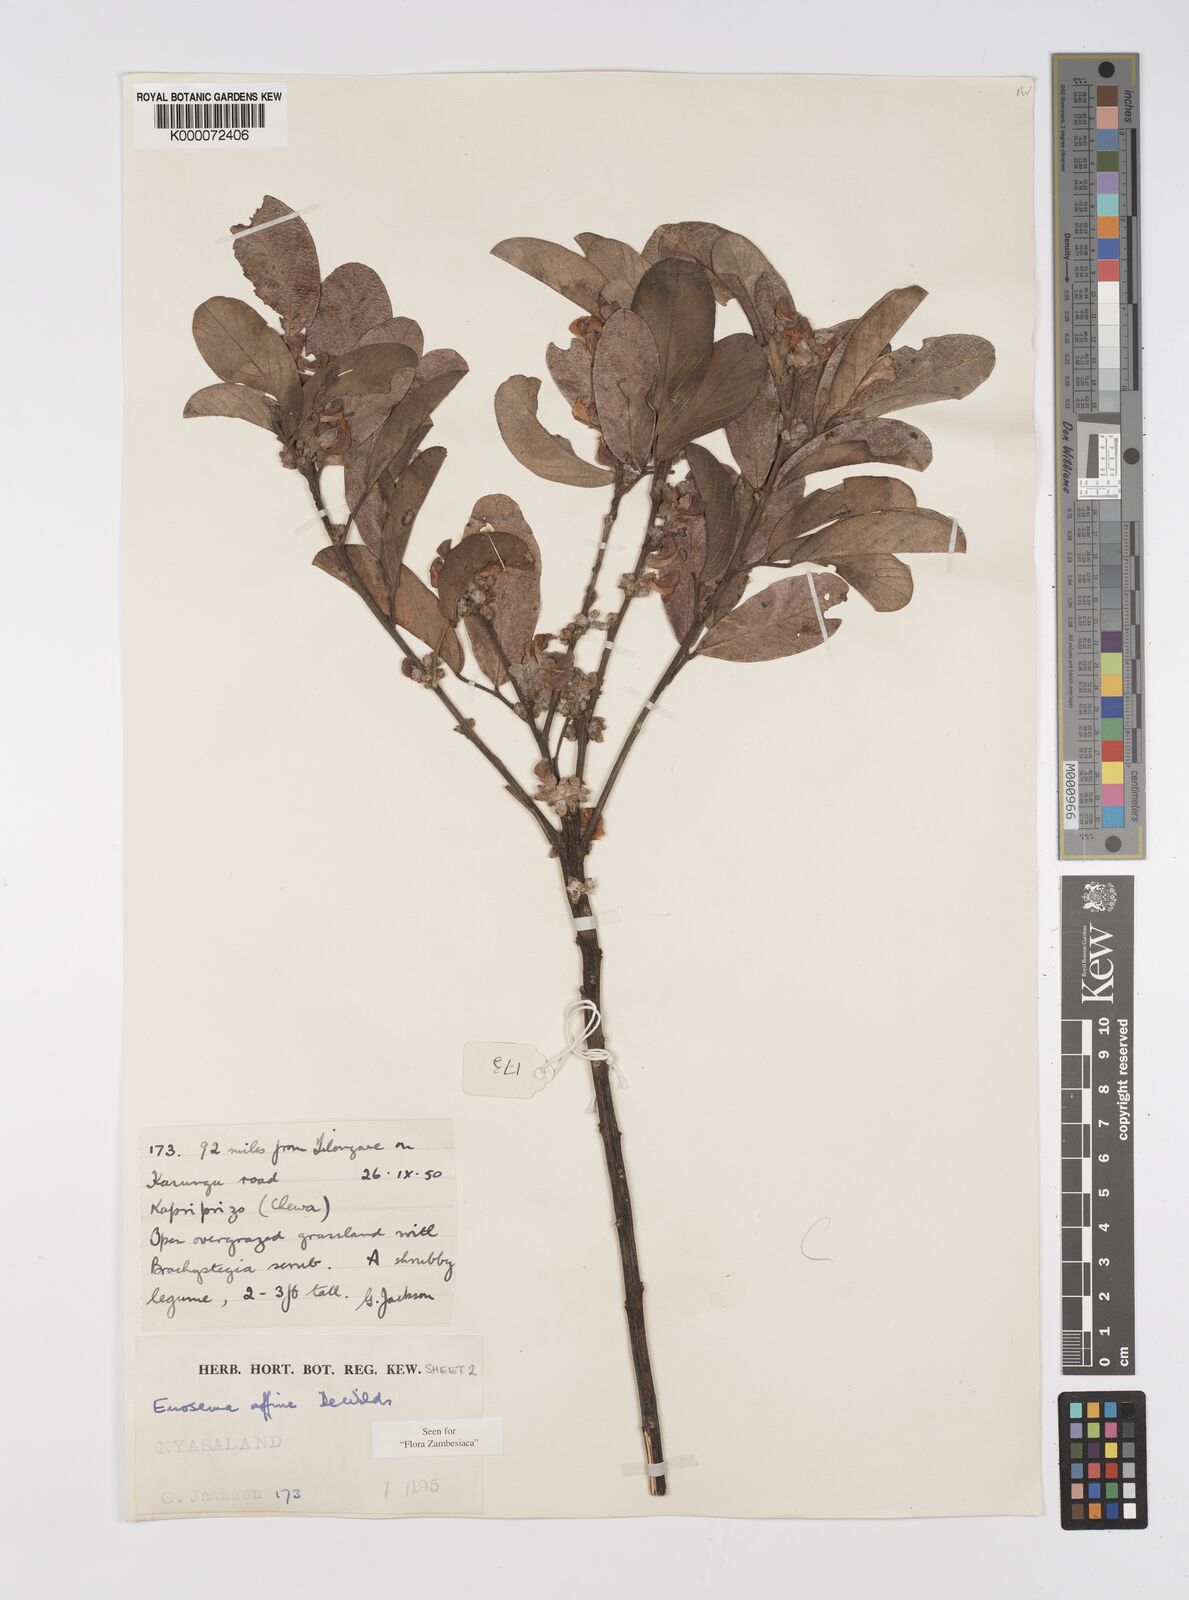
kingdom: Plantae
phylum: Tracheophyta
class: Magnoliopsida
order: Fabales
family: Fabaceae
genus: Eriosema
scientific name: Eriosema affine
